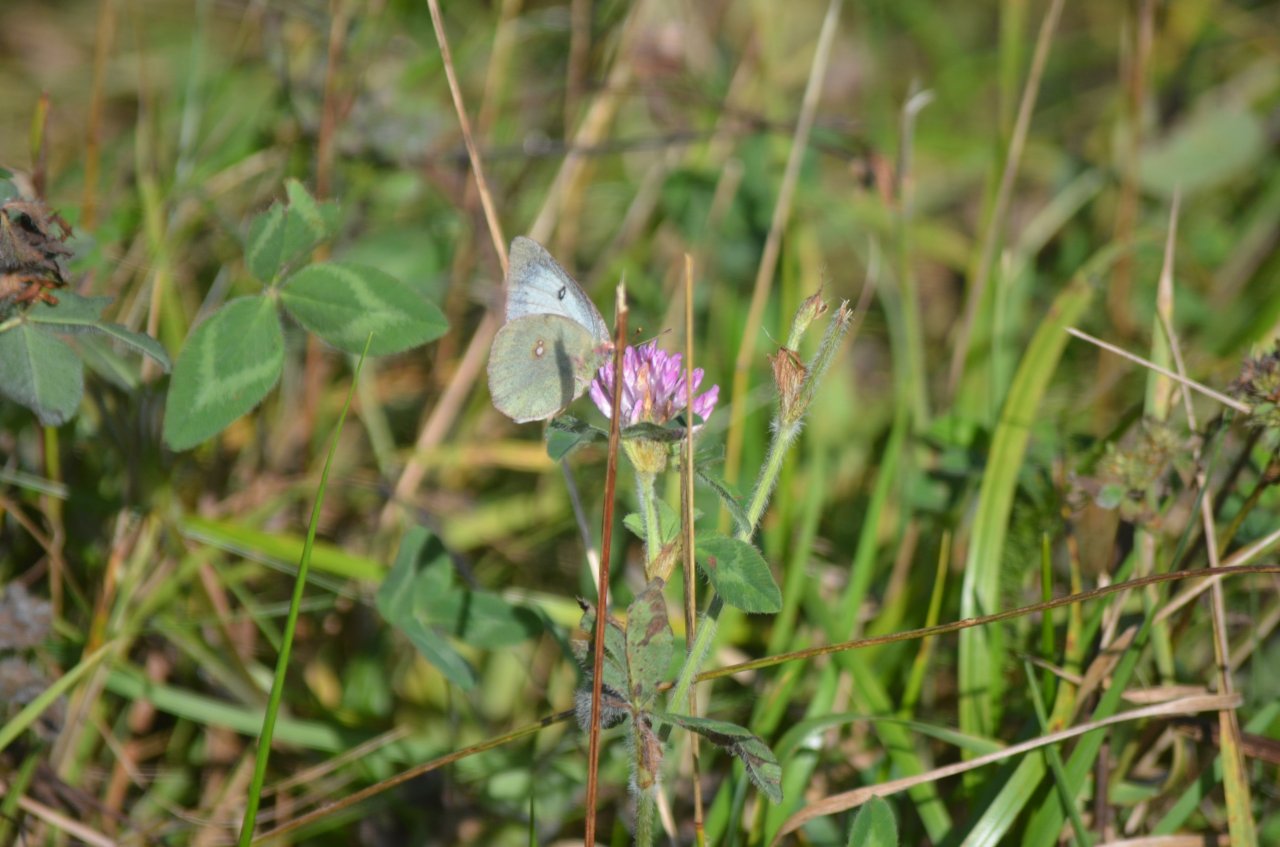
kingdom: Animalia
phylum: Arthropoda
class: Insecta
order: Lepidoptera
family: Pieridae
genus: Colias
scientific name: Colias philodice
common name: Clouded Sulphur
